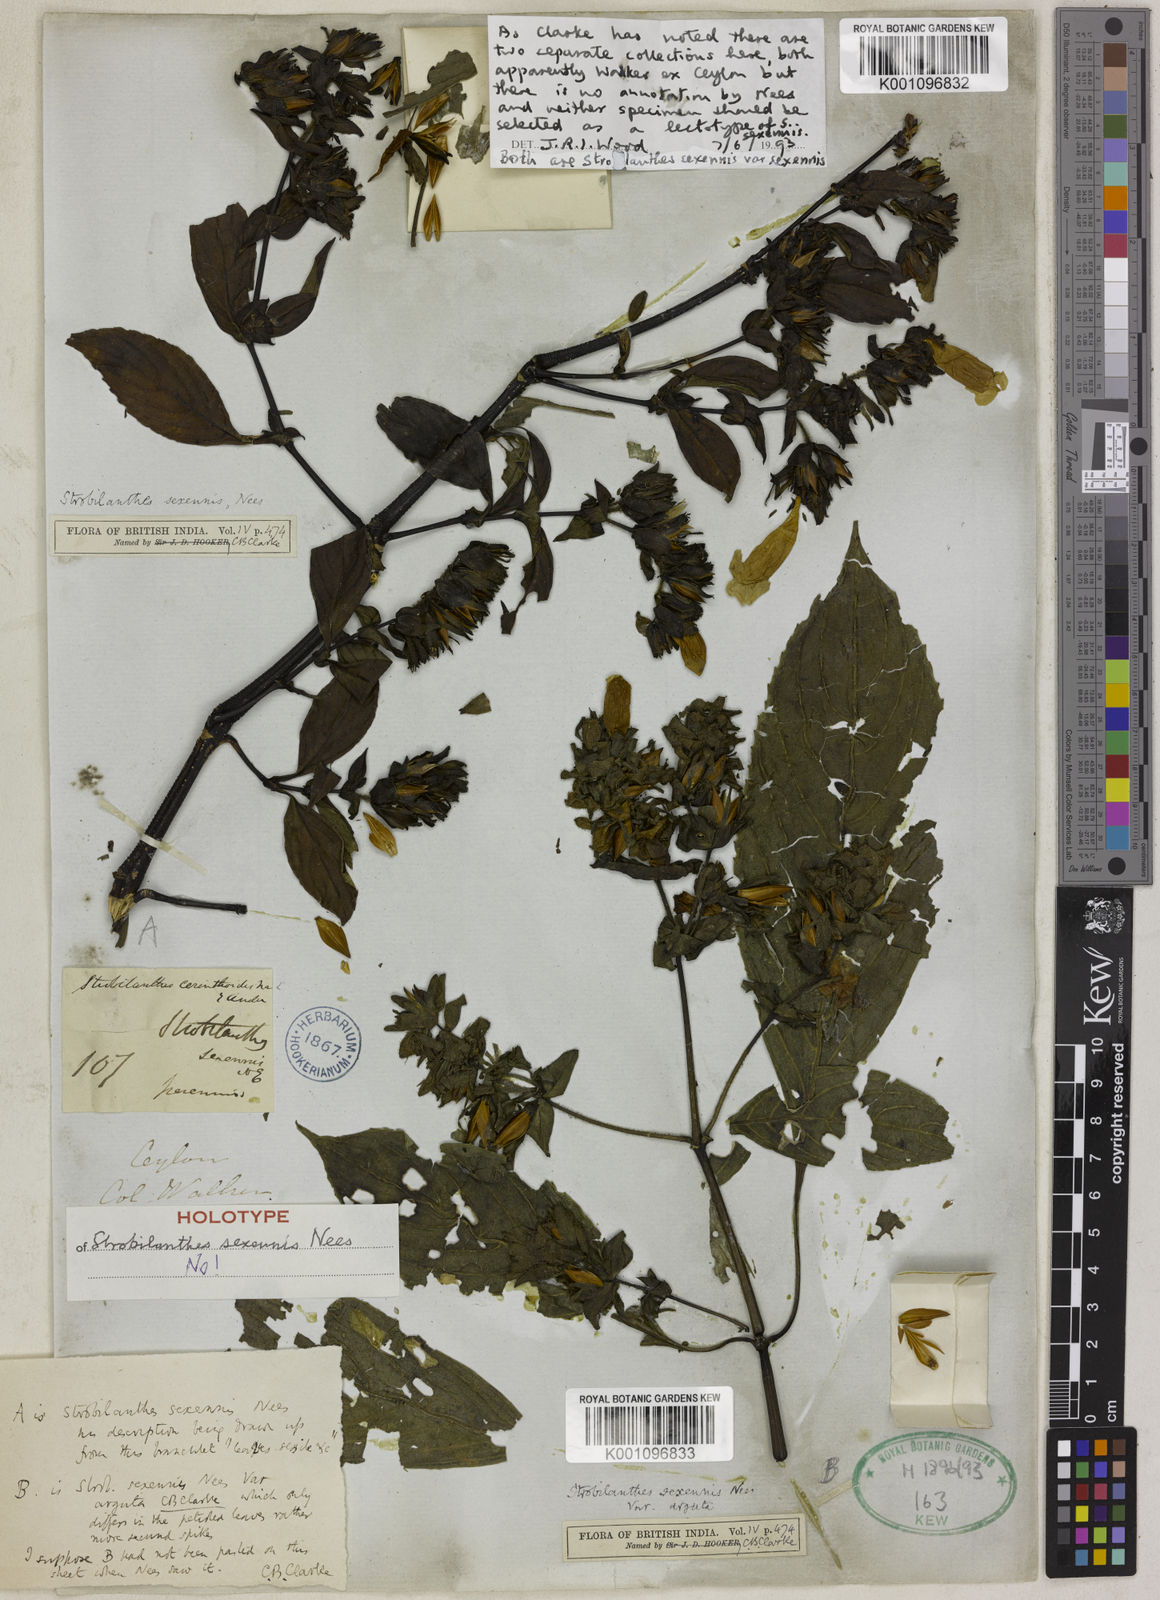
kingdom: Plantae
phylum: Tracheophyta
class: Magnoliopsida
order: Lamiales
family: Acanthaceae
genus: Strobilanthes
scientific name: Strobilanthes sexennis
